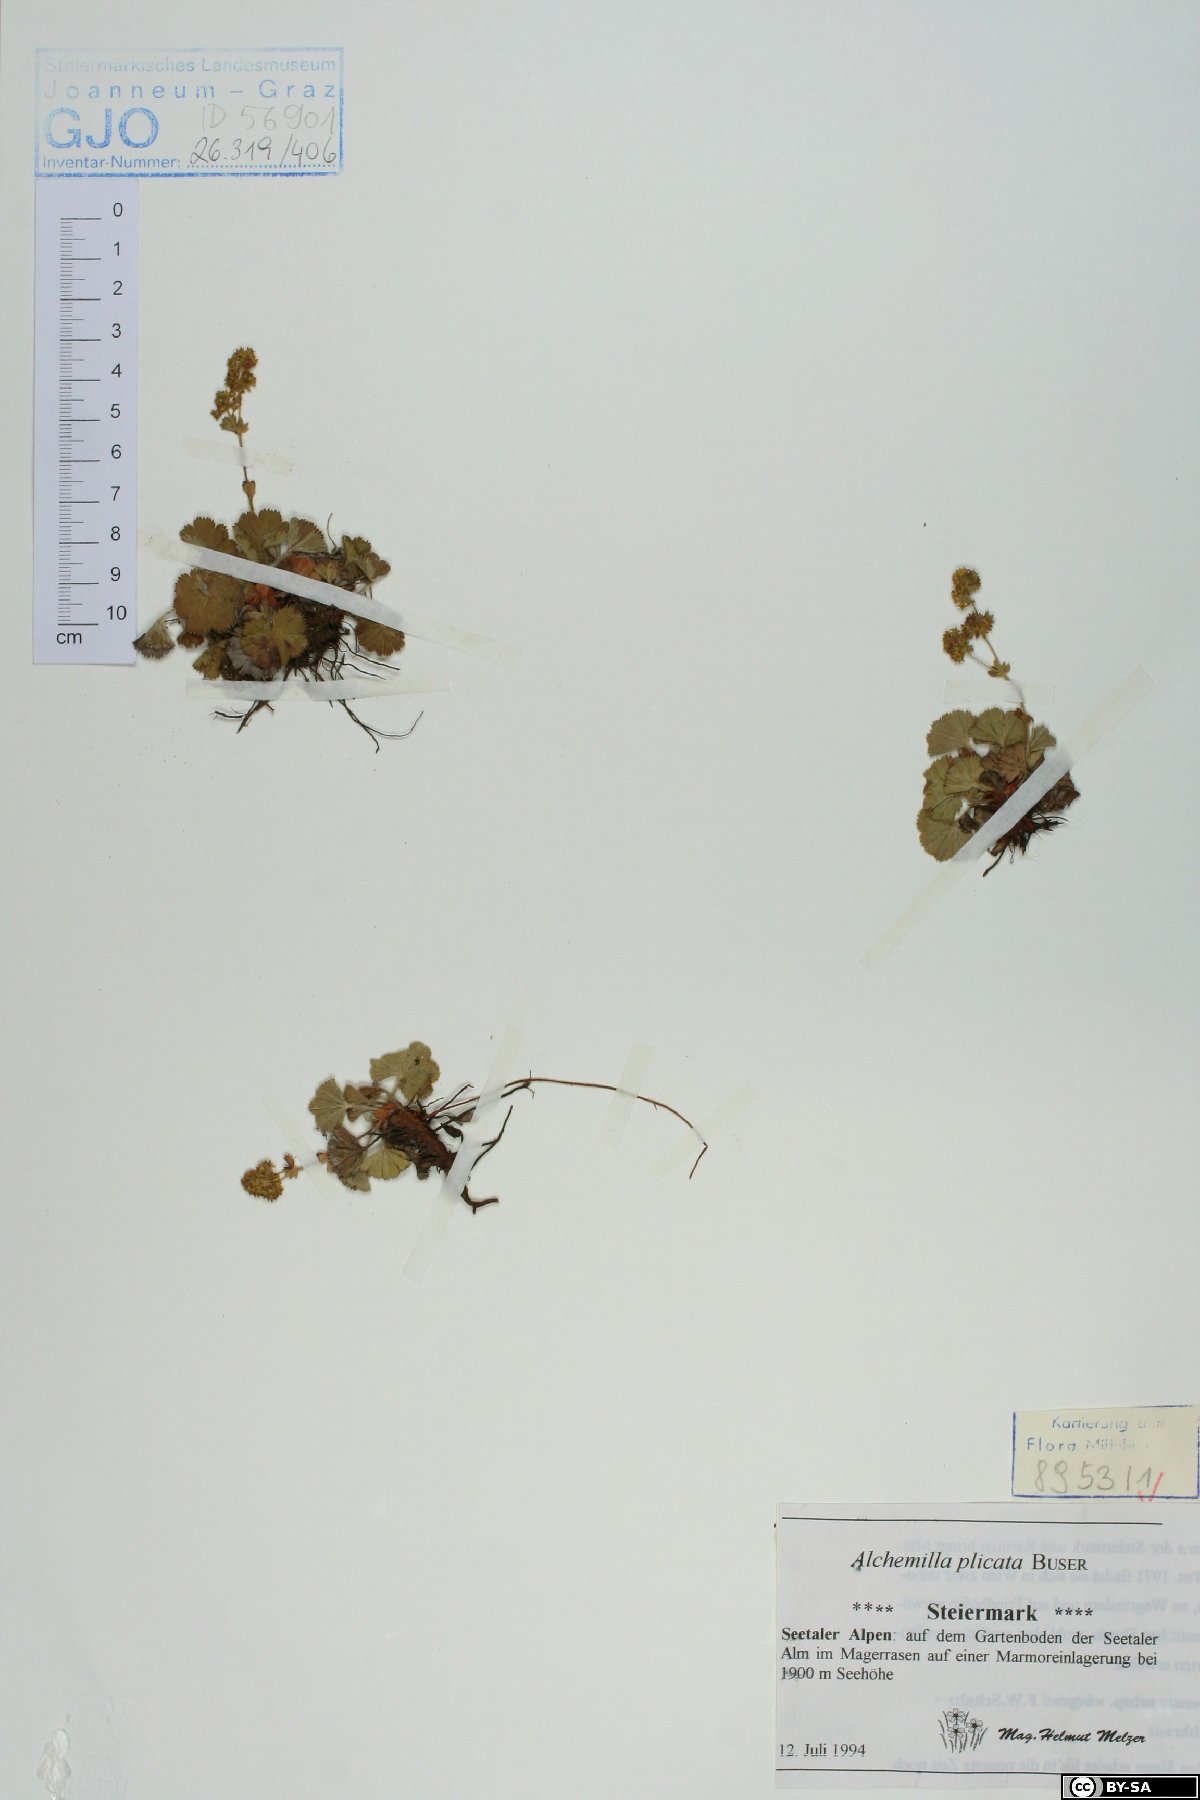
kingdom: Plantae
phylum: Tracheophyta
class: Magnoliopsida
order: Rosales
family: Rosaceae
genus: Alchemilla
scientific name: Alchemilla plicata
